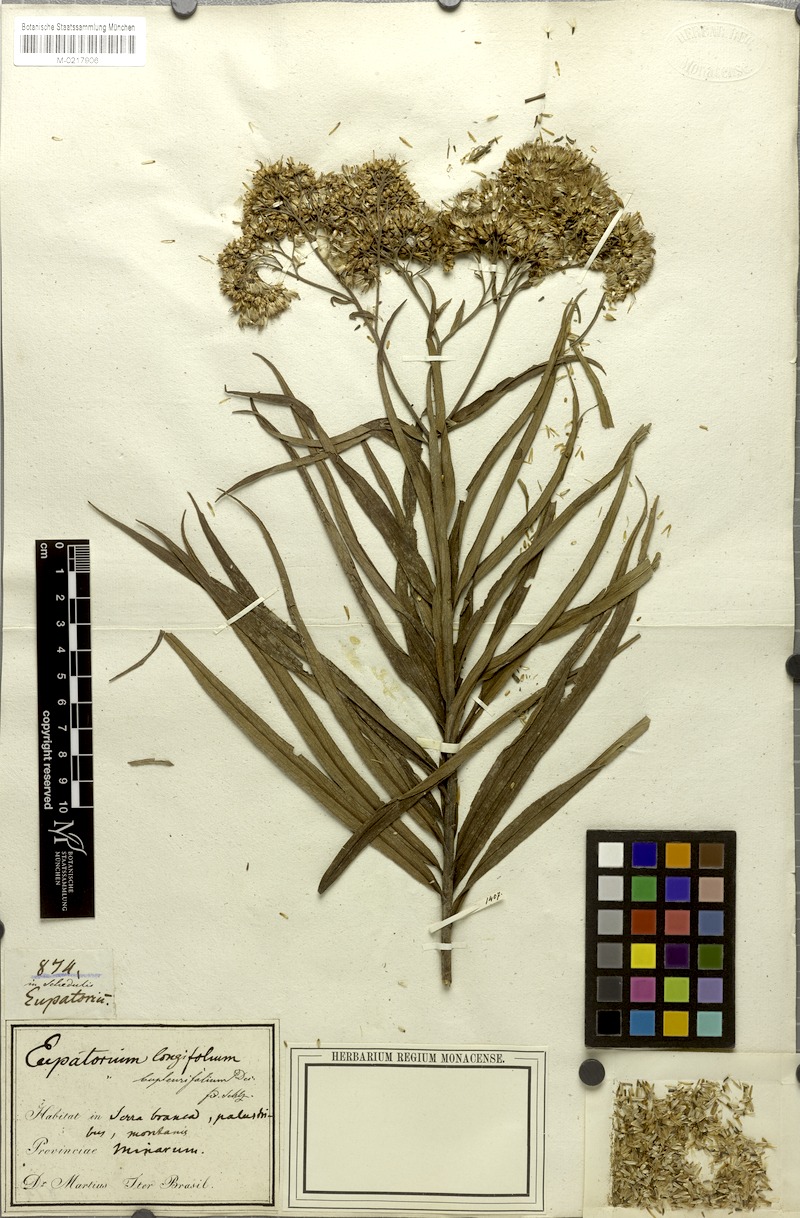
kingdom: Plantae
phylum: Tracheophyta
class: Magnoliopsida
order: Asterales
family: Asteraceae
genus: Campovassouria
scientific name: Campovassouria cruciata
